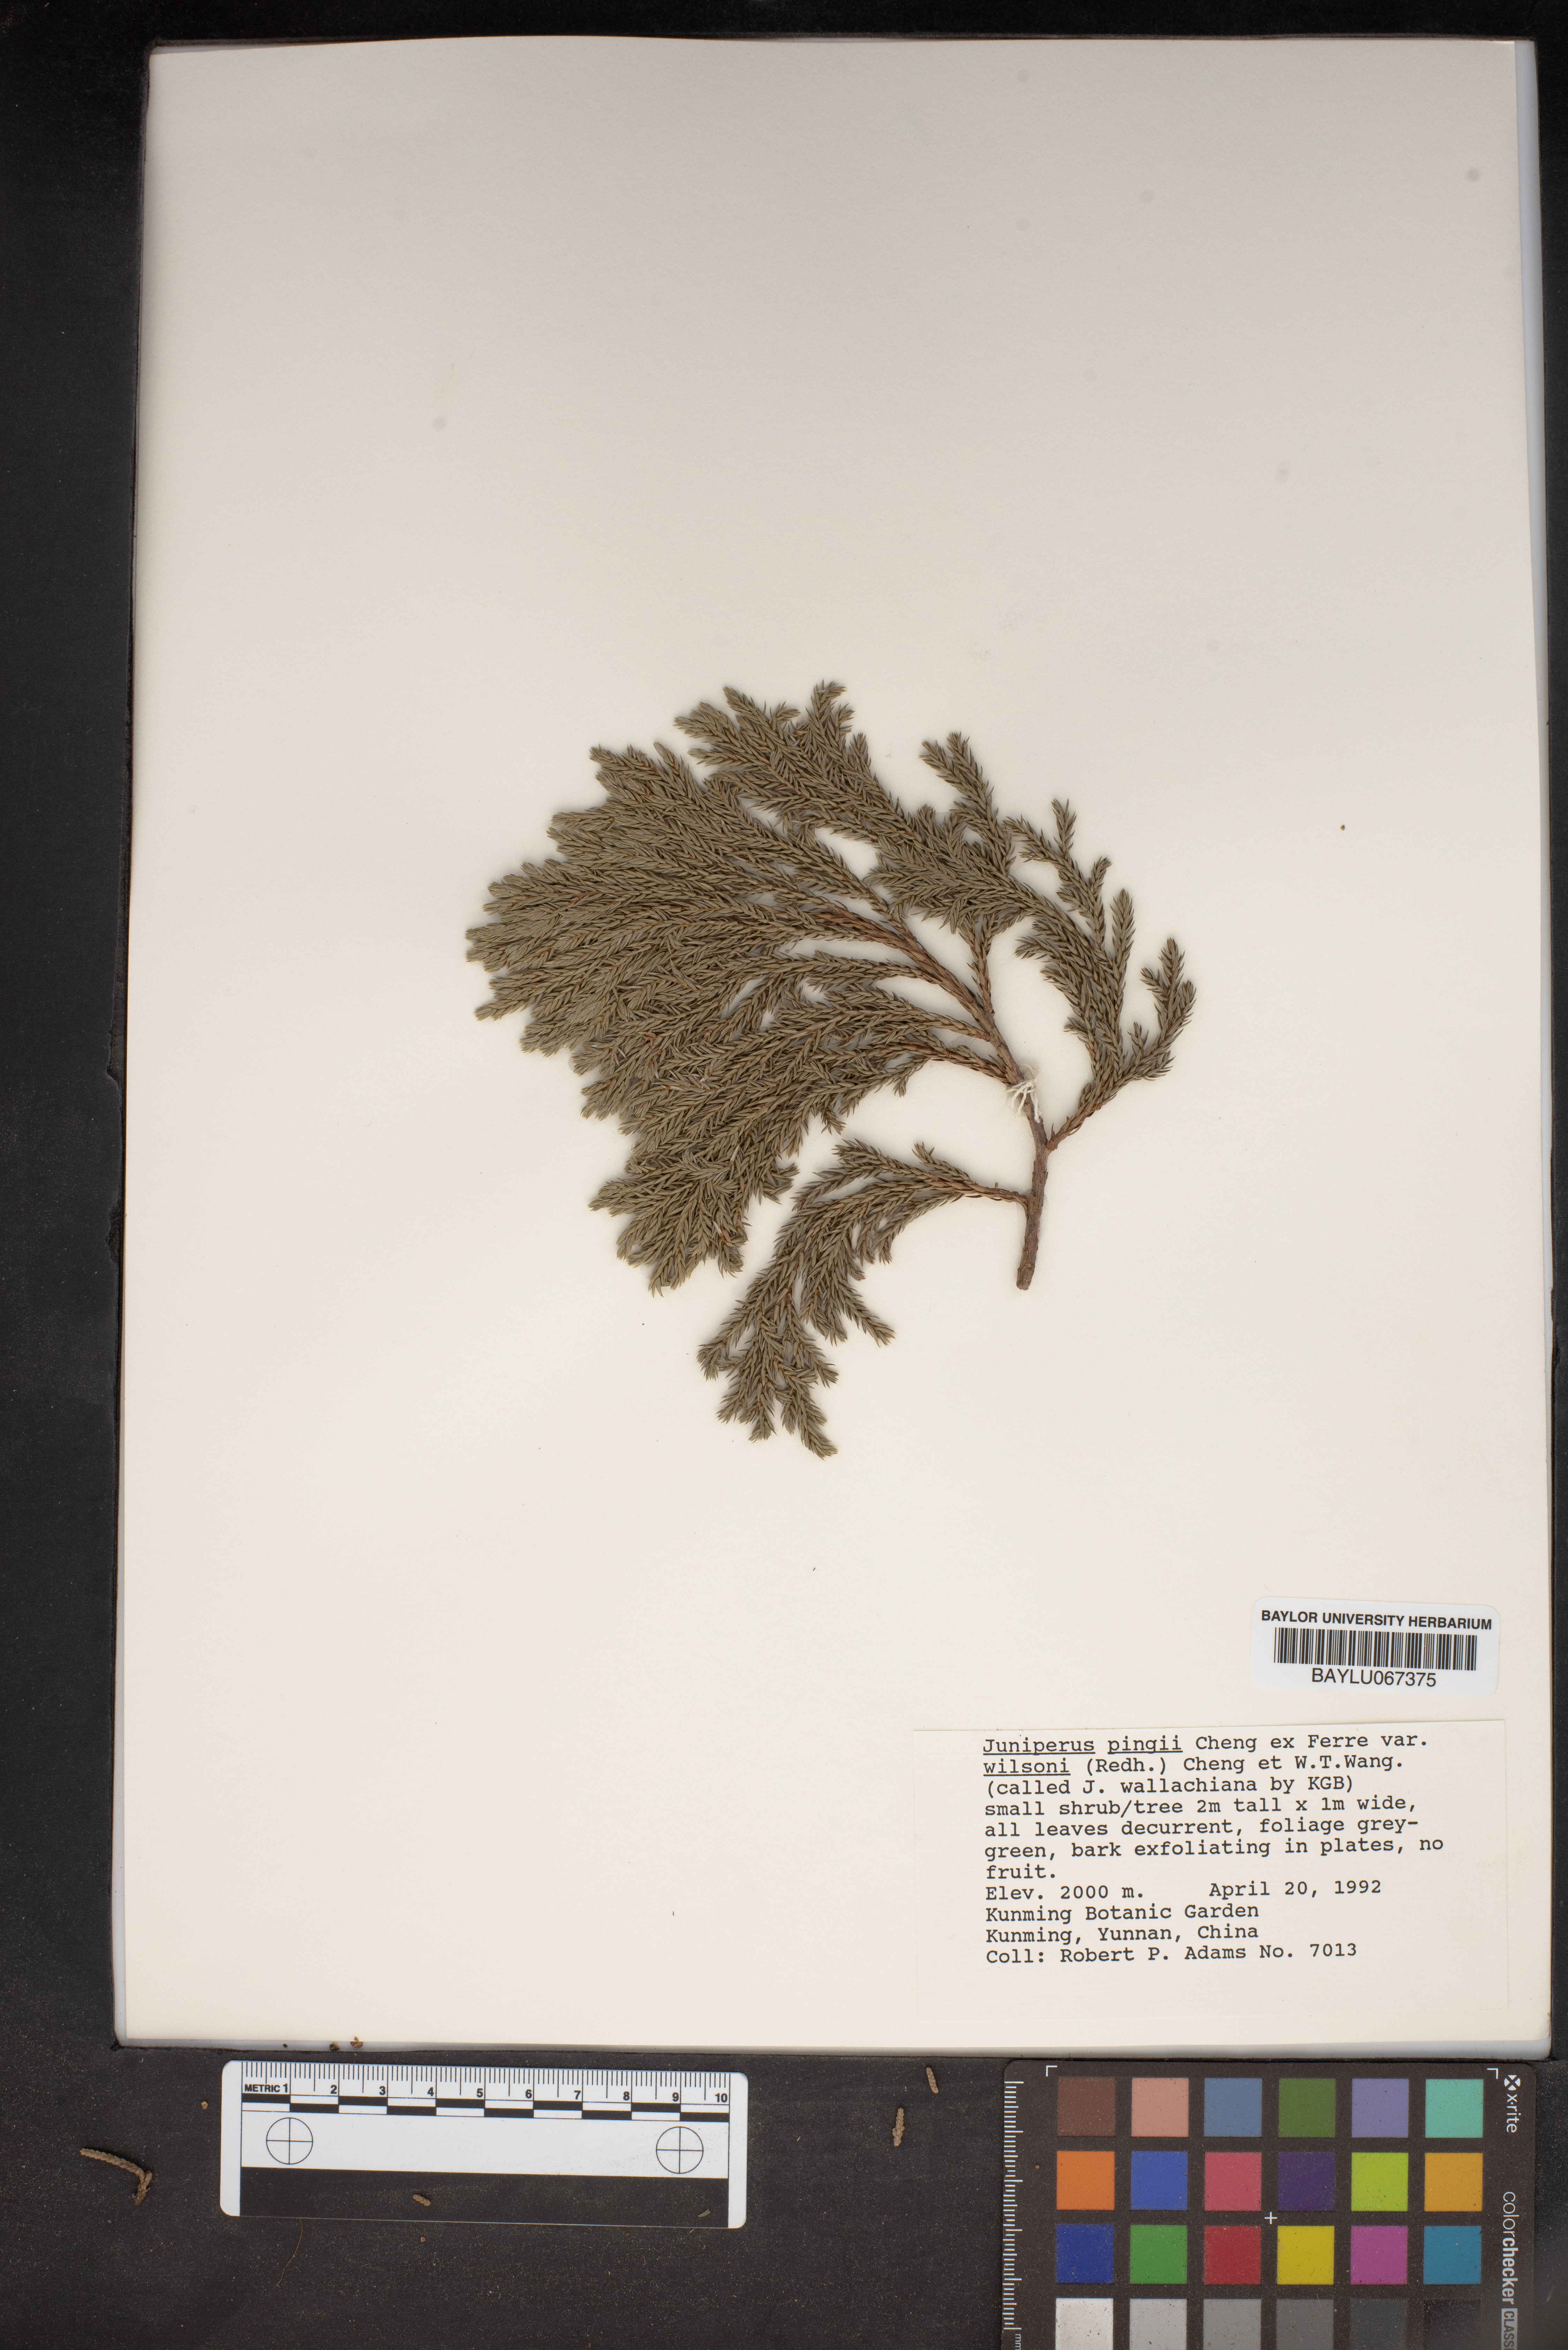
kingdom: Plantae
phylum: Tracheophyta
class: Pinopsida
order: Pinales
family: Cupressaceae
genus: Juniperus
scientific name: Juniperus pingii
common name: Ping's juniper
